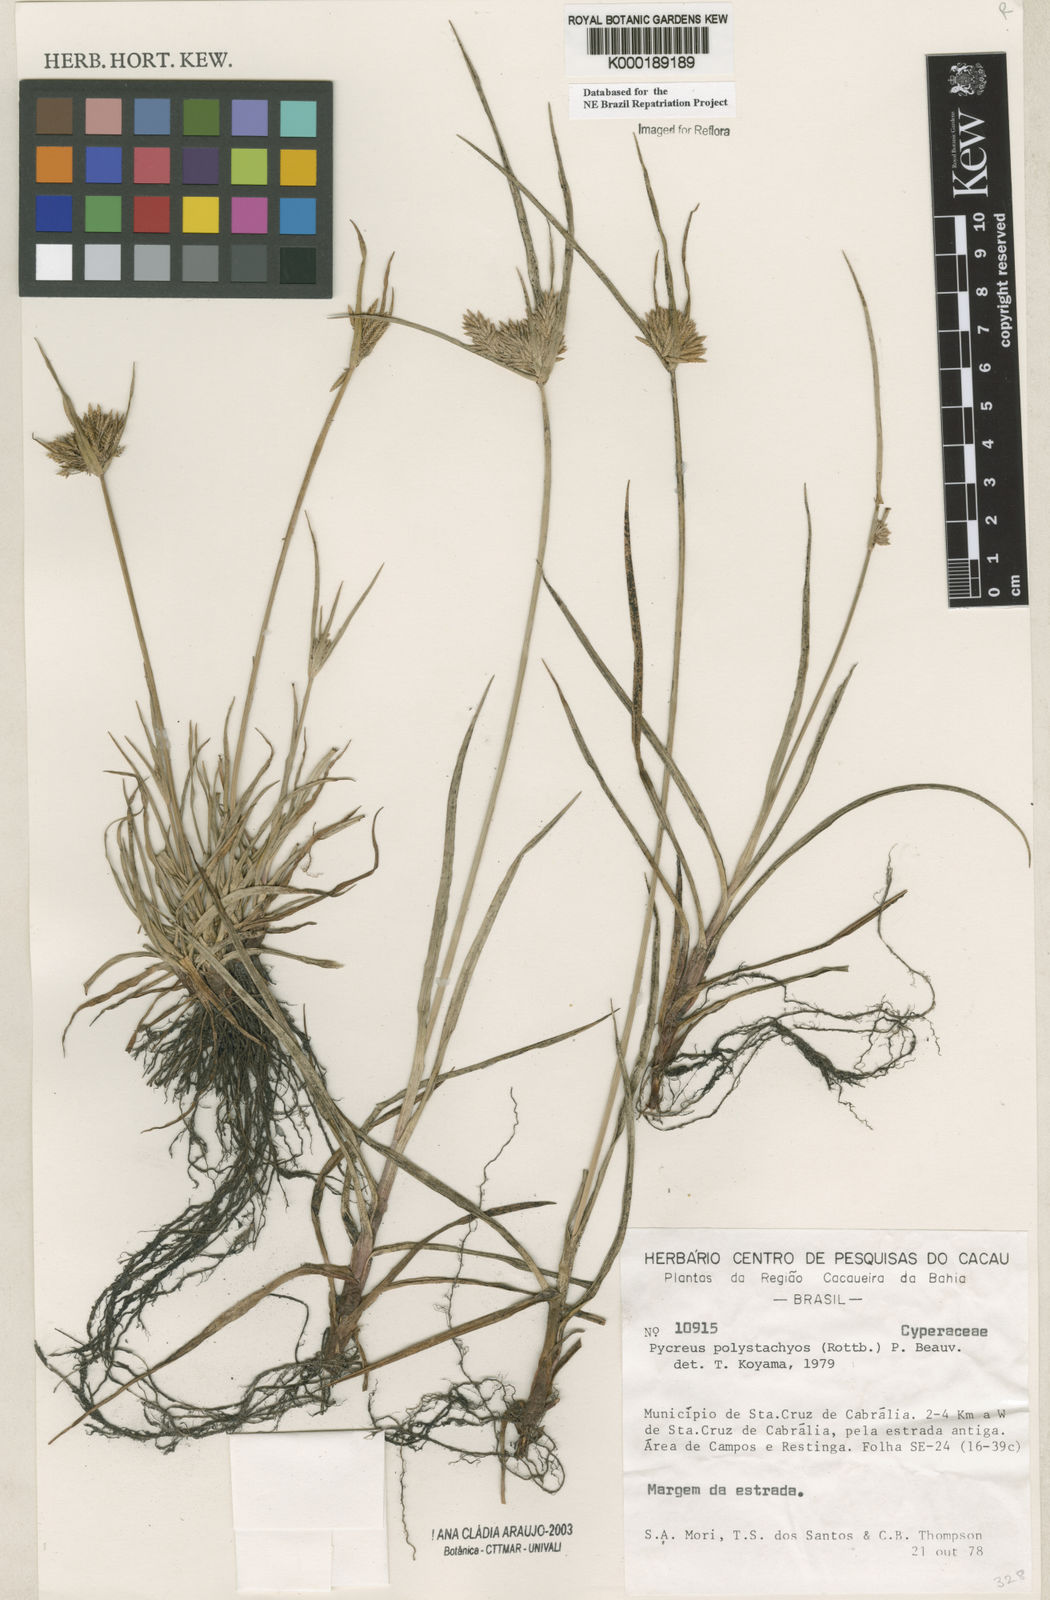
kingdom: Plantae
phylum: Tracheophyta
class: Liliopsida
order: Poales
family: Cyperaceae
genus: Cyperus
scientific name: Cyperus polystachyos
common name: Bunchy flat sedge
